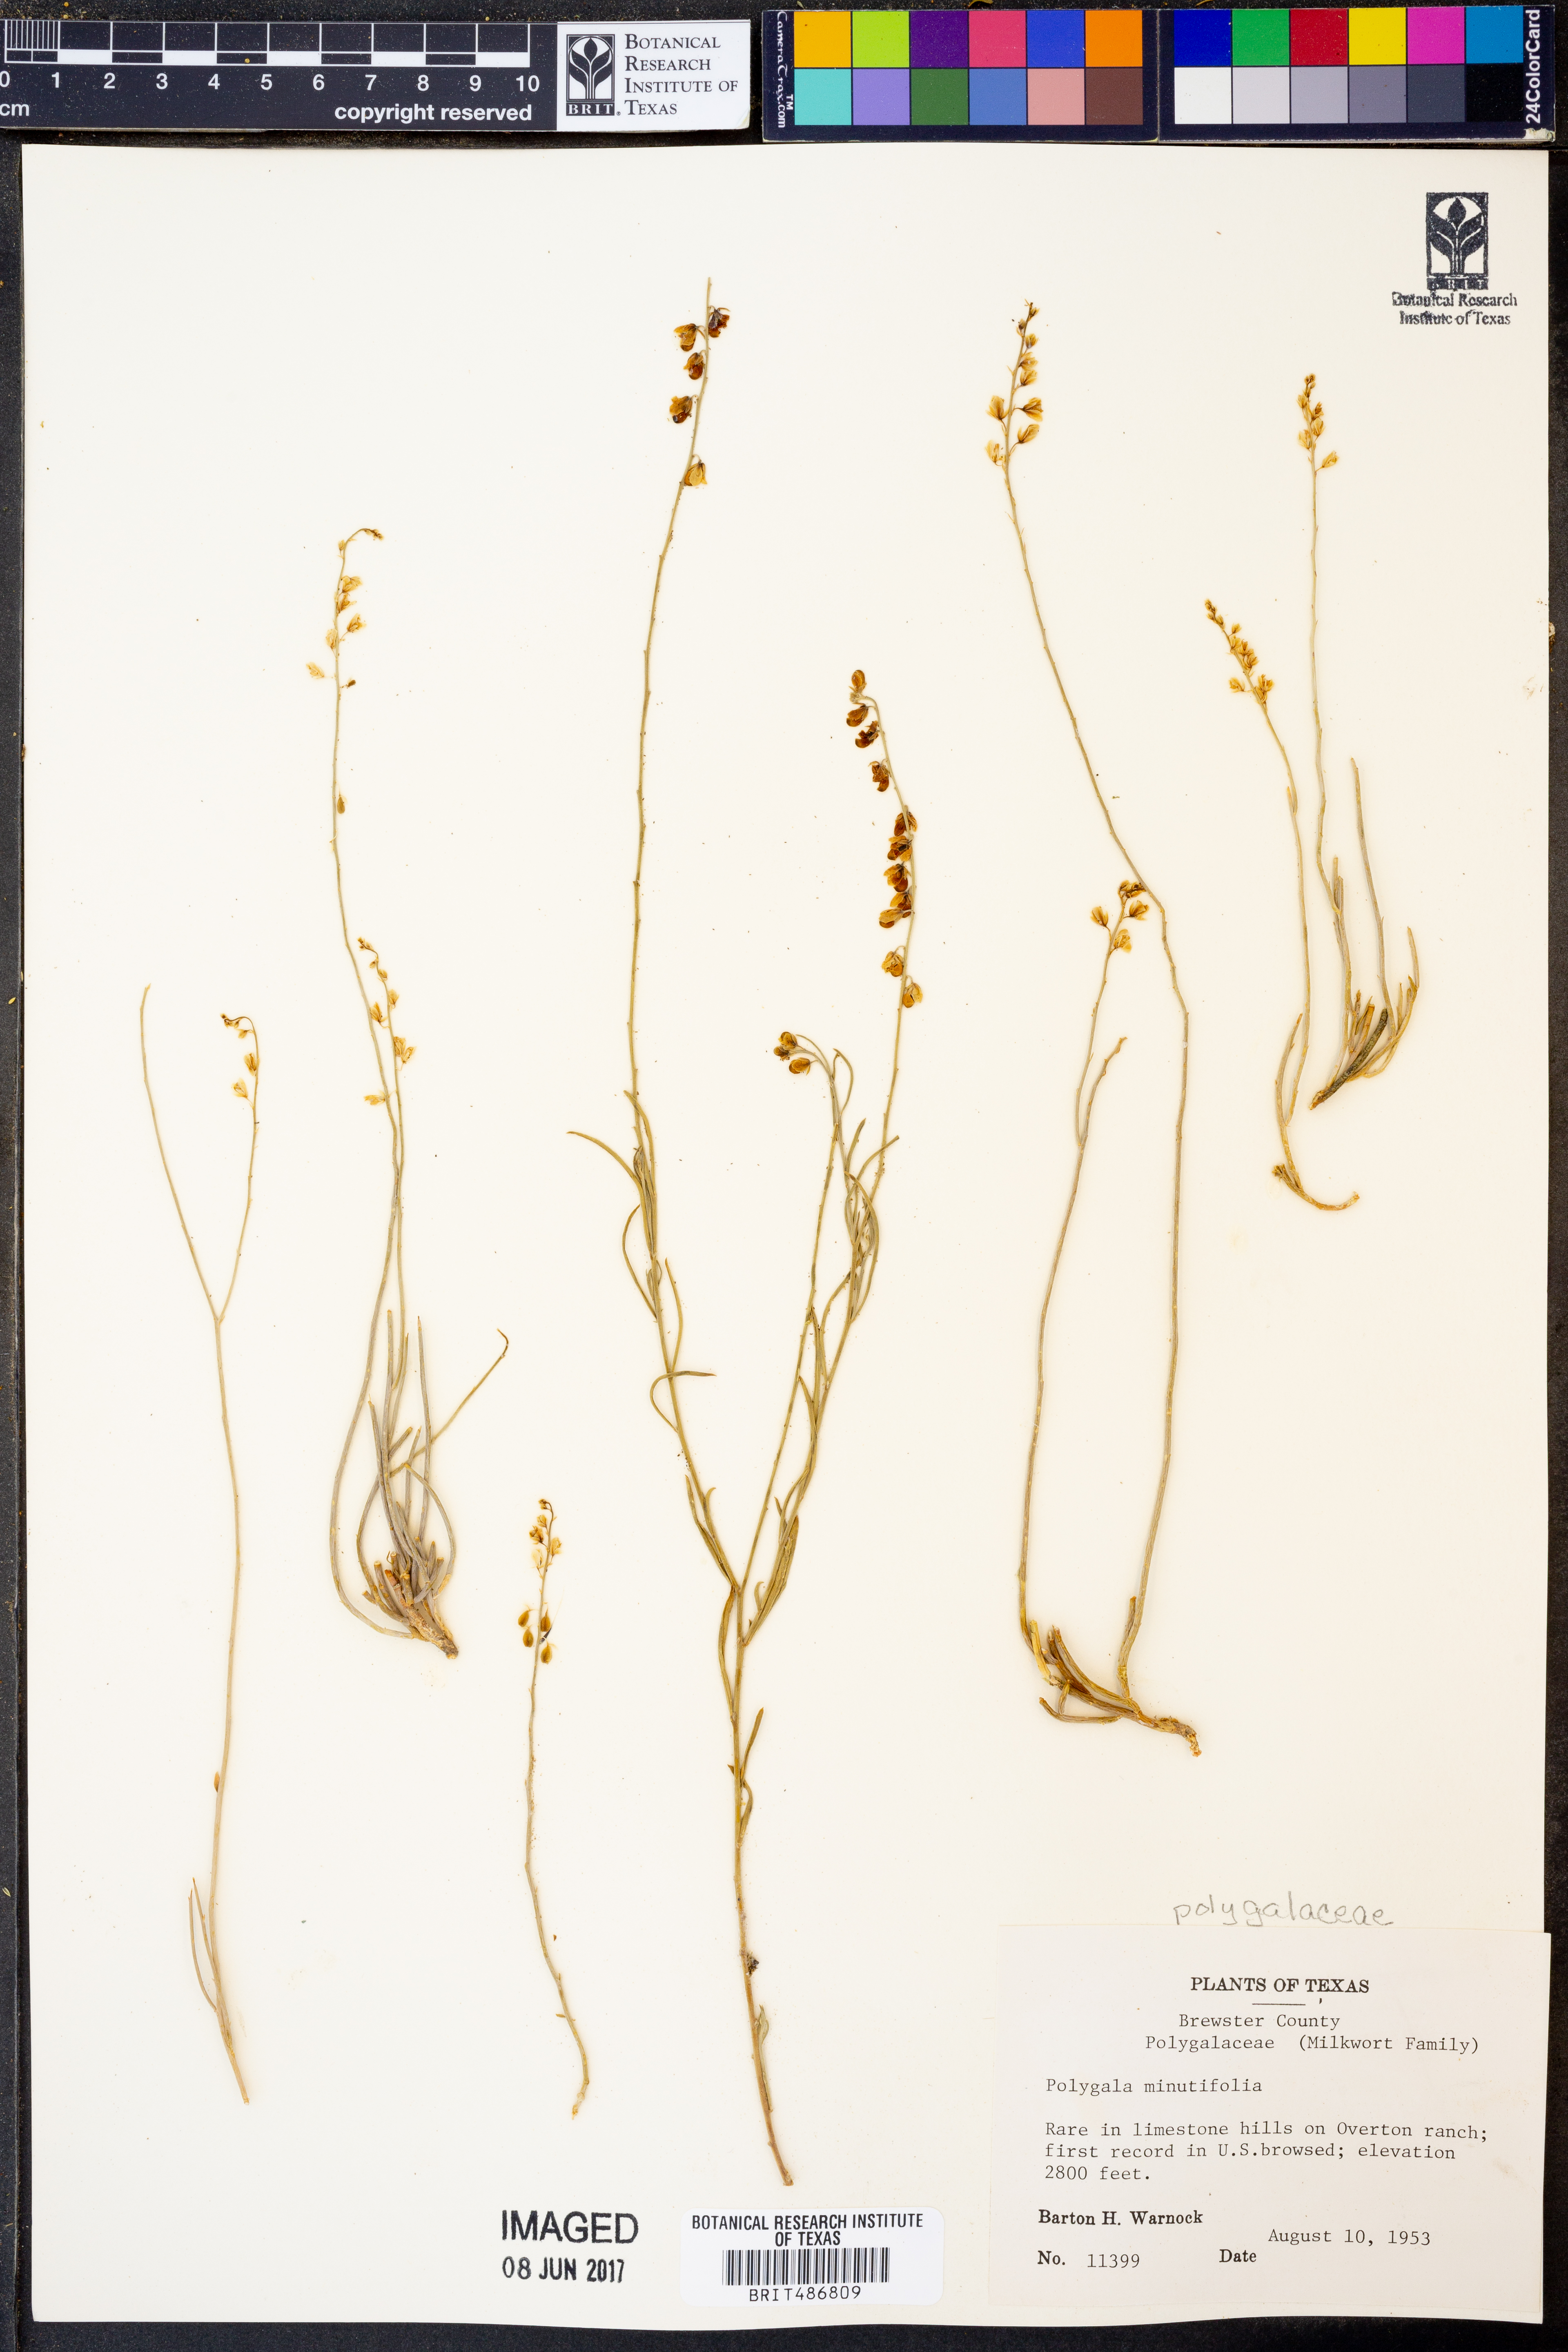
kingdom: Plantae
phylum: Tracheophyta
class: Magnoliopsida
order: Fabales
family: Polygalaceae
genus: Rhinotropis
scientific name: Rhinotropis minutifolia
